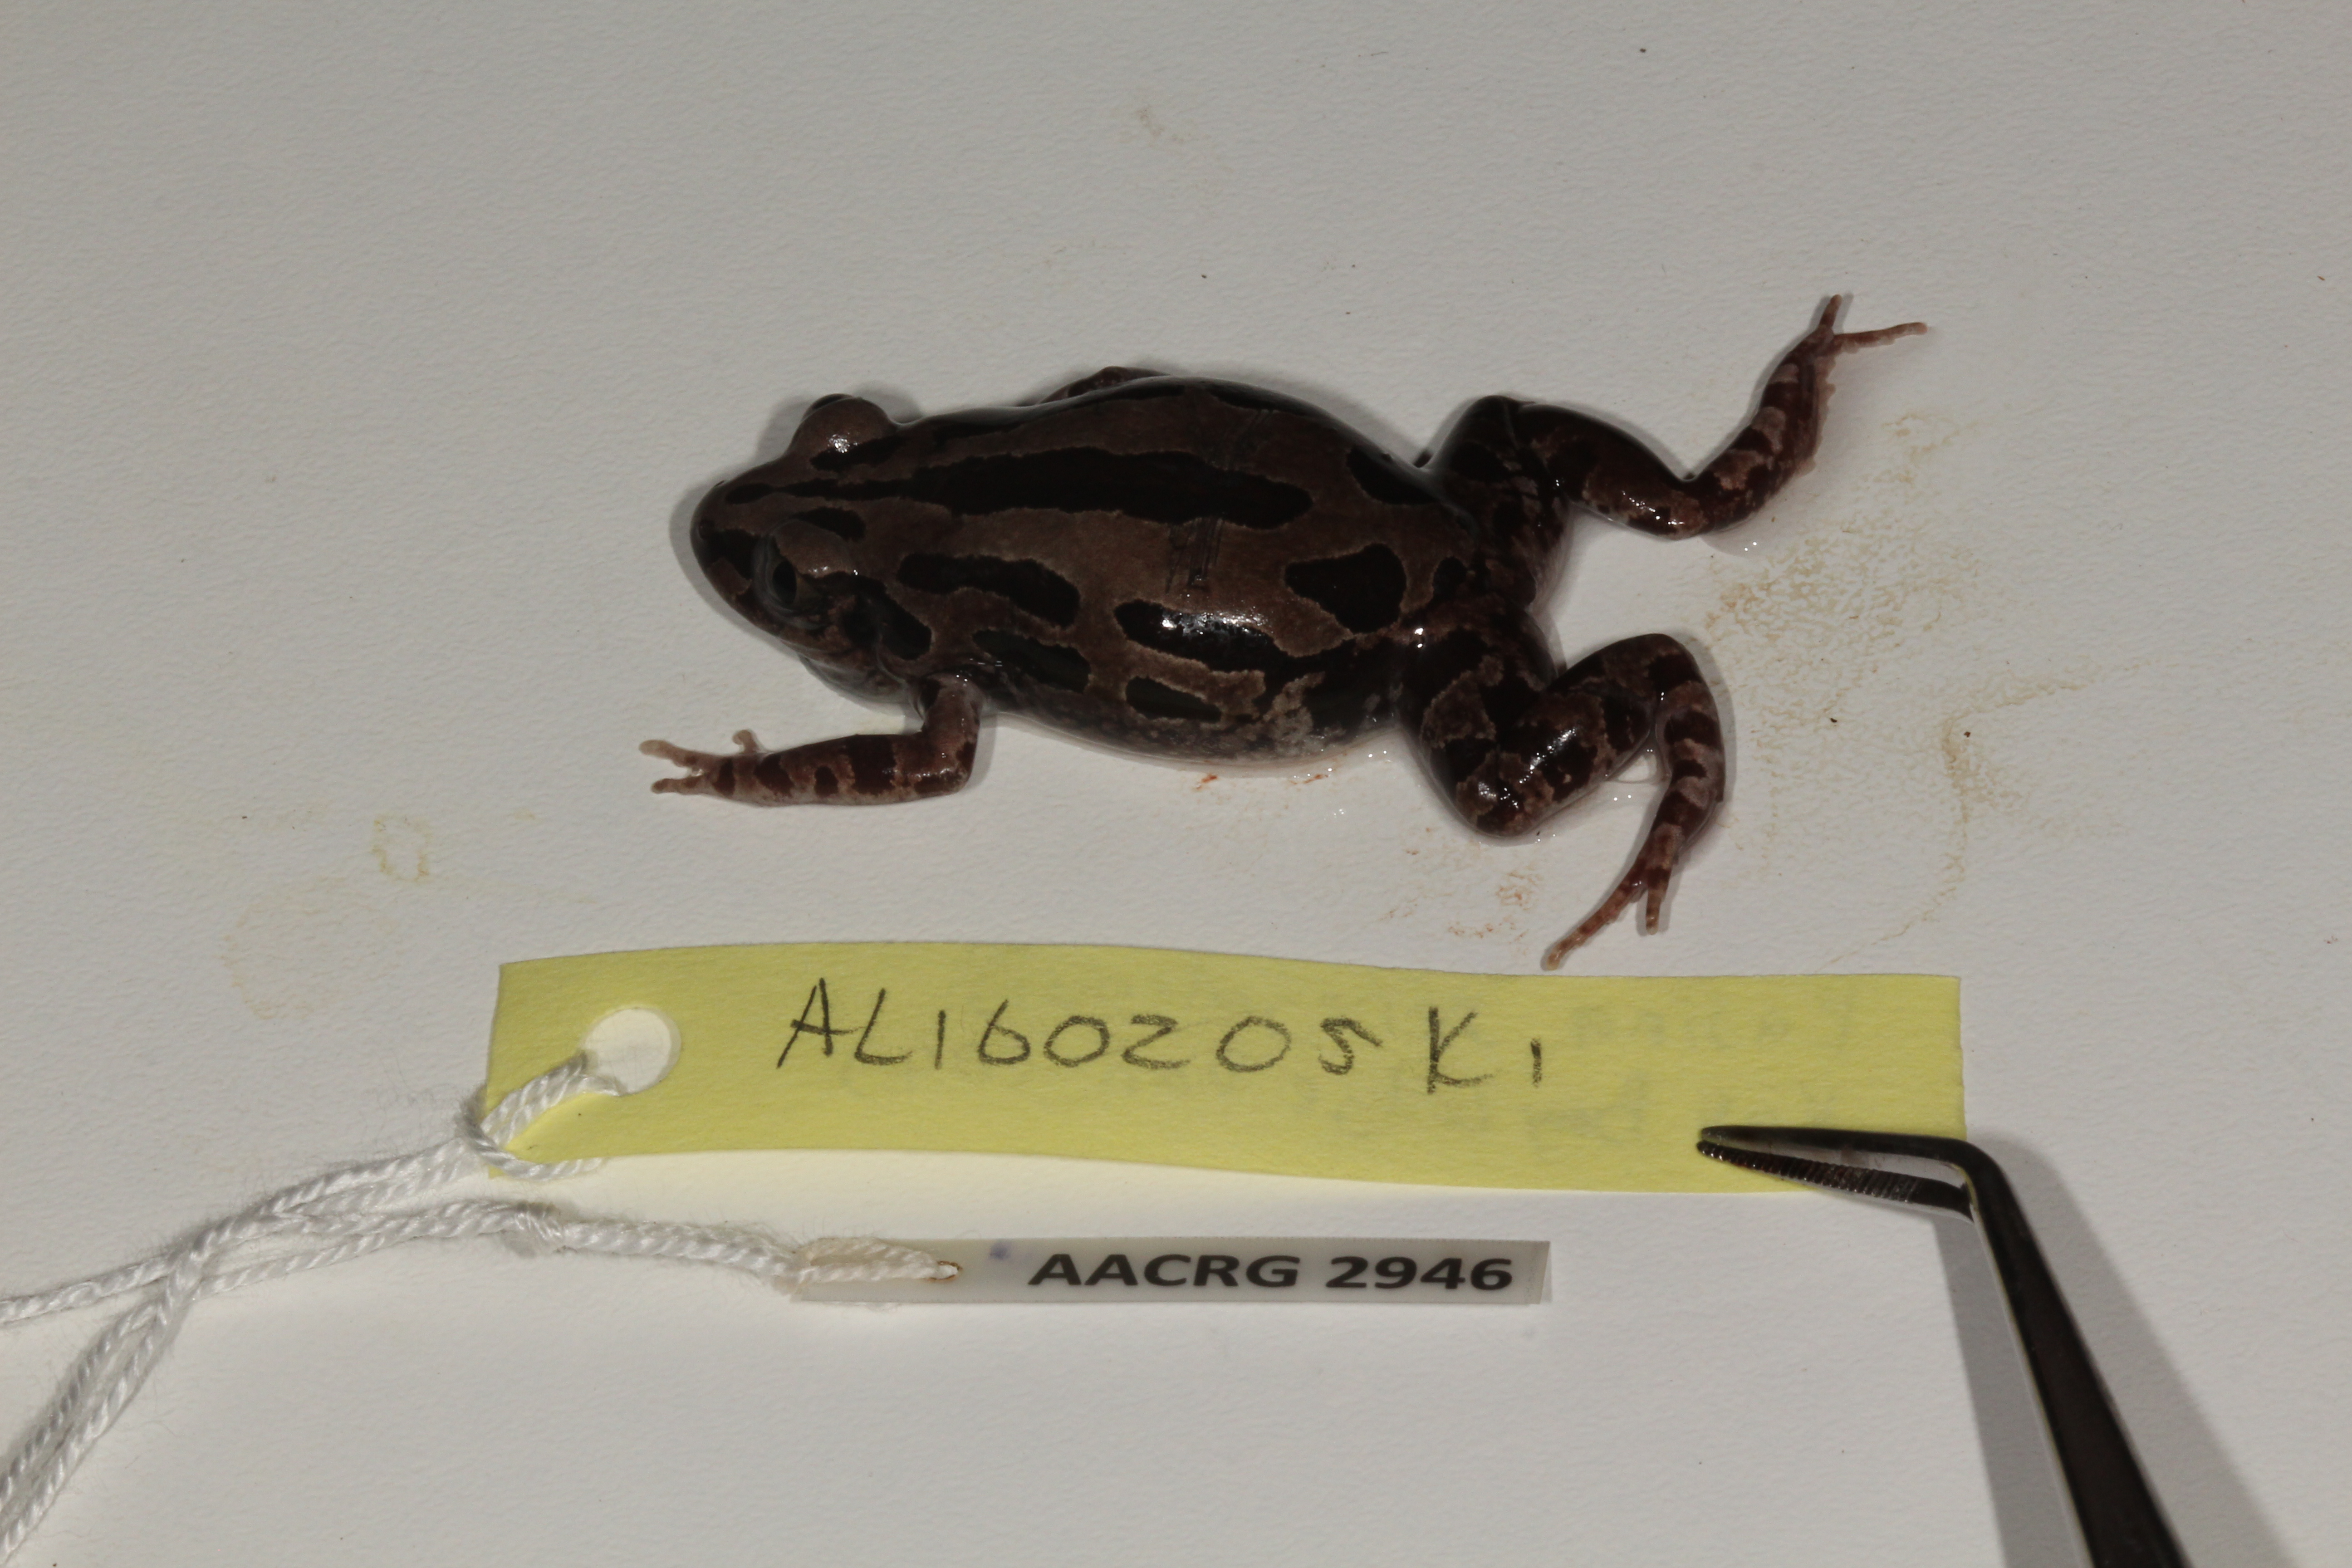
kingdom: Animalia
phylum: Chordata
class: Amphibia
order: Anura
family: Hyperoliidae
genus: Kassina
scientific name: Kassina senegalensis
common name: Senegal land frog
